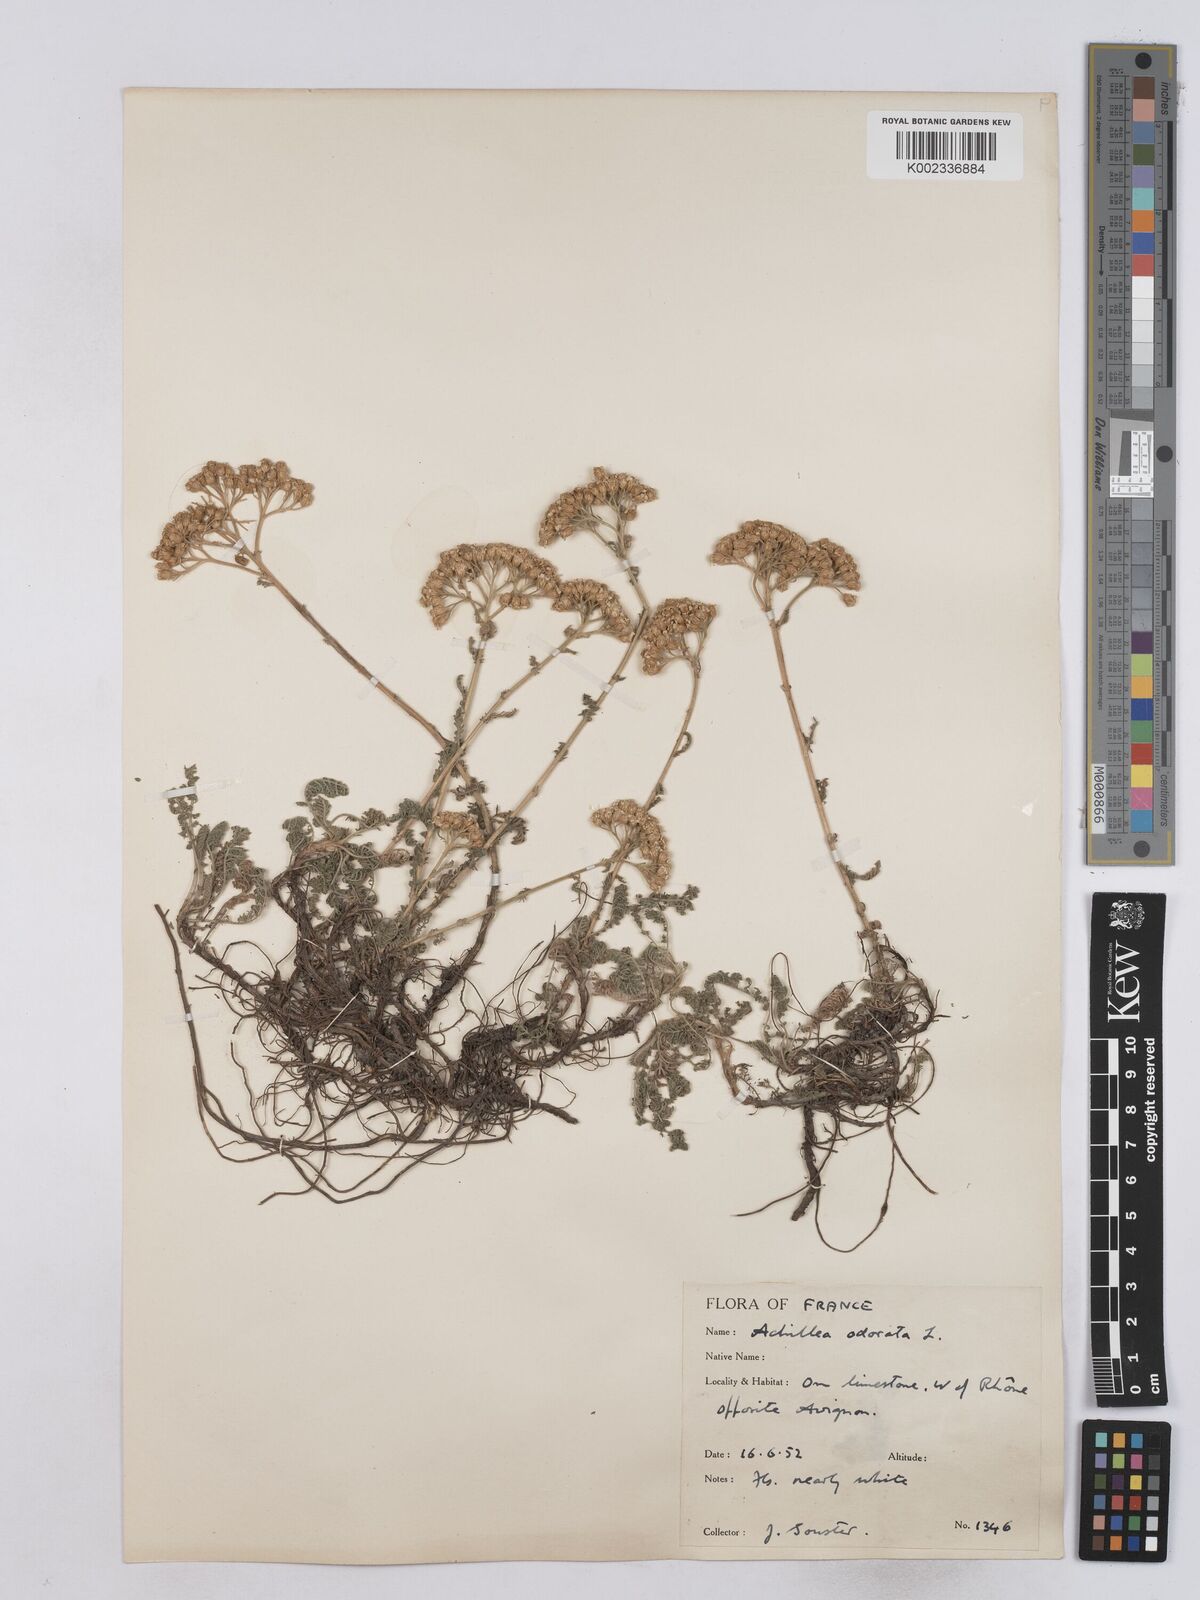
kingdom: Plantae
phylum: Tracheophyta
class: Magnoliopsida
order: Asterales
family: Asteraceae
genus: Achillea
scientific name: Achillea odorata
